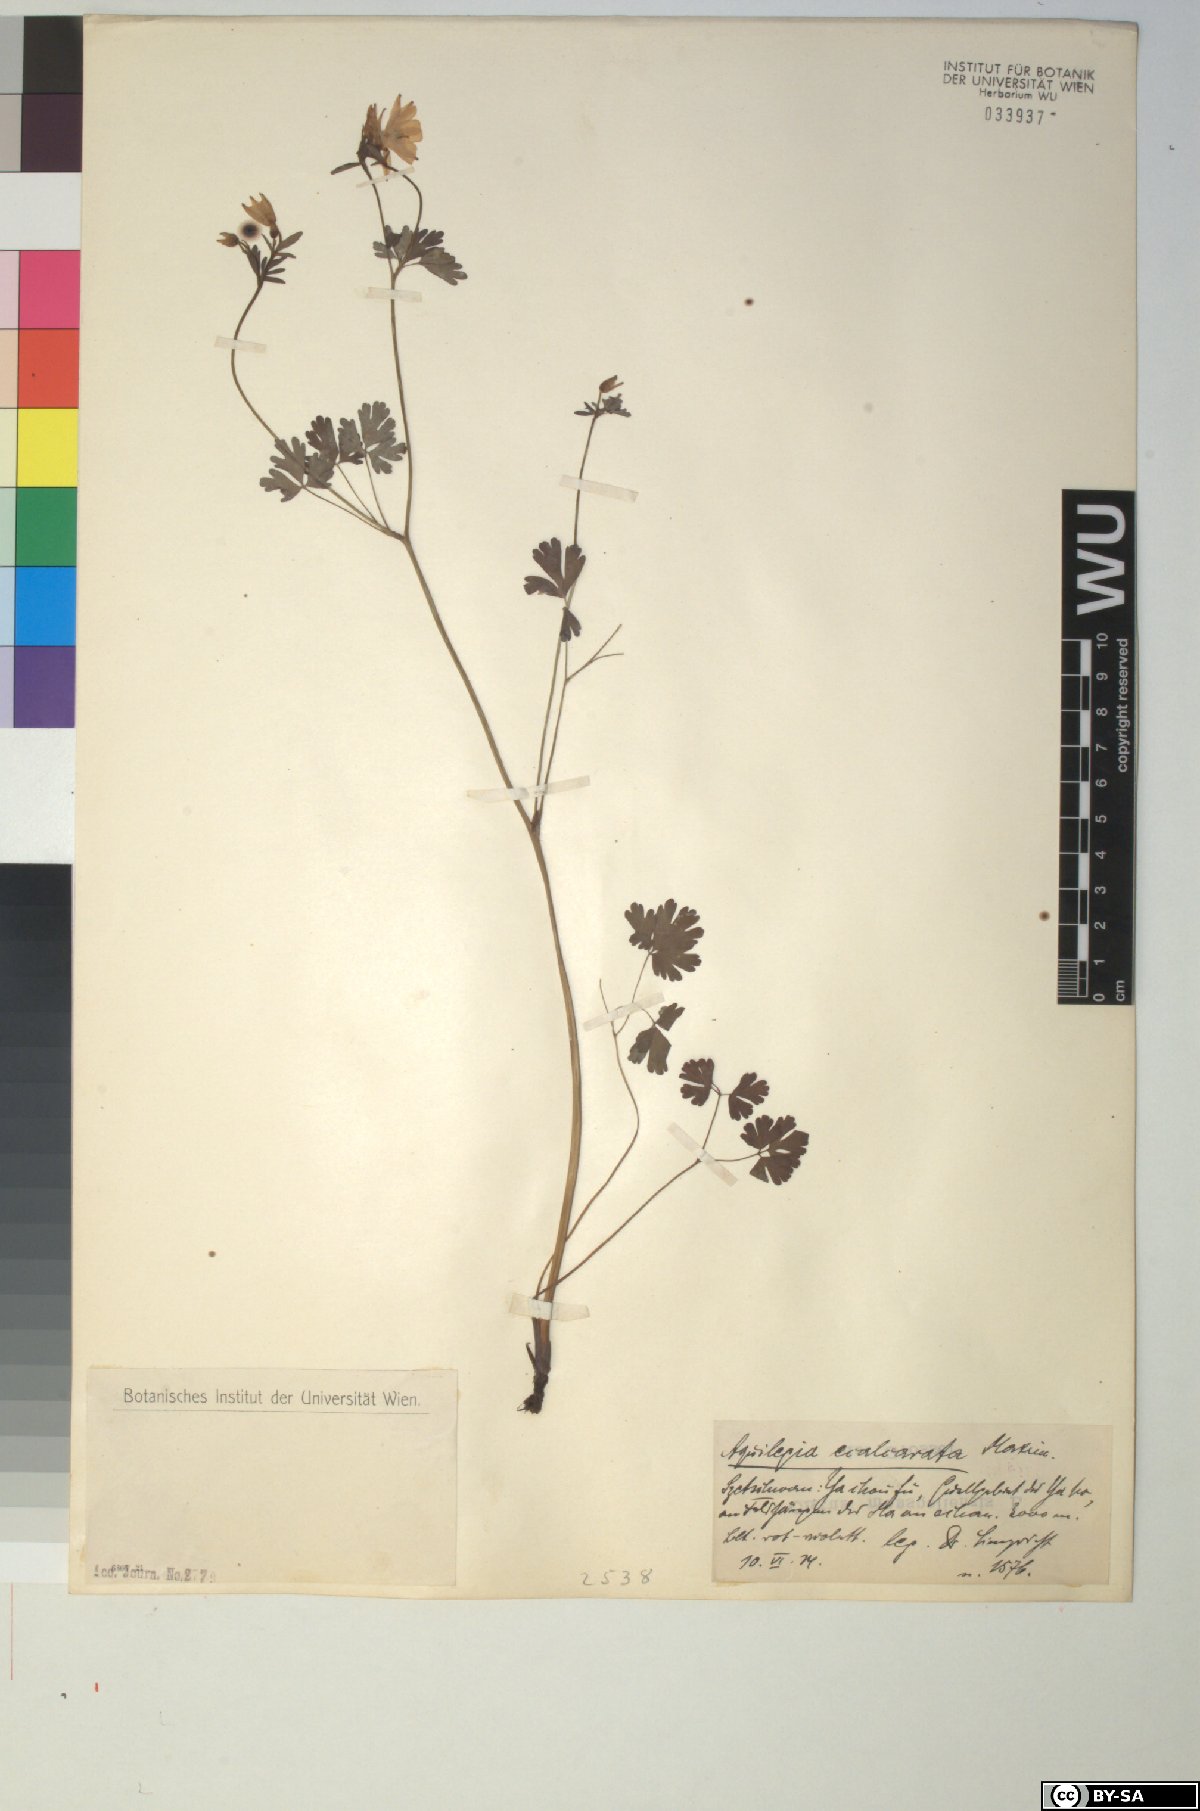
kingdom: Plantae
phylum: Tracheophyta
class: Magnoliopsida
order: Ranunculales
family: Ranunculaceae
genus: Aquilegia
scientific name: Aquilegia ecalcarata
